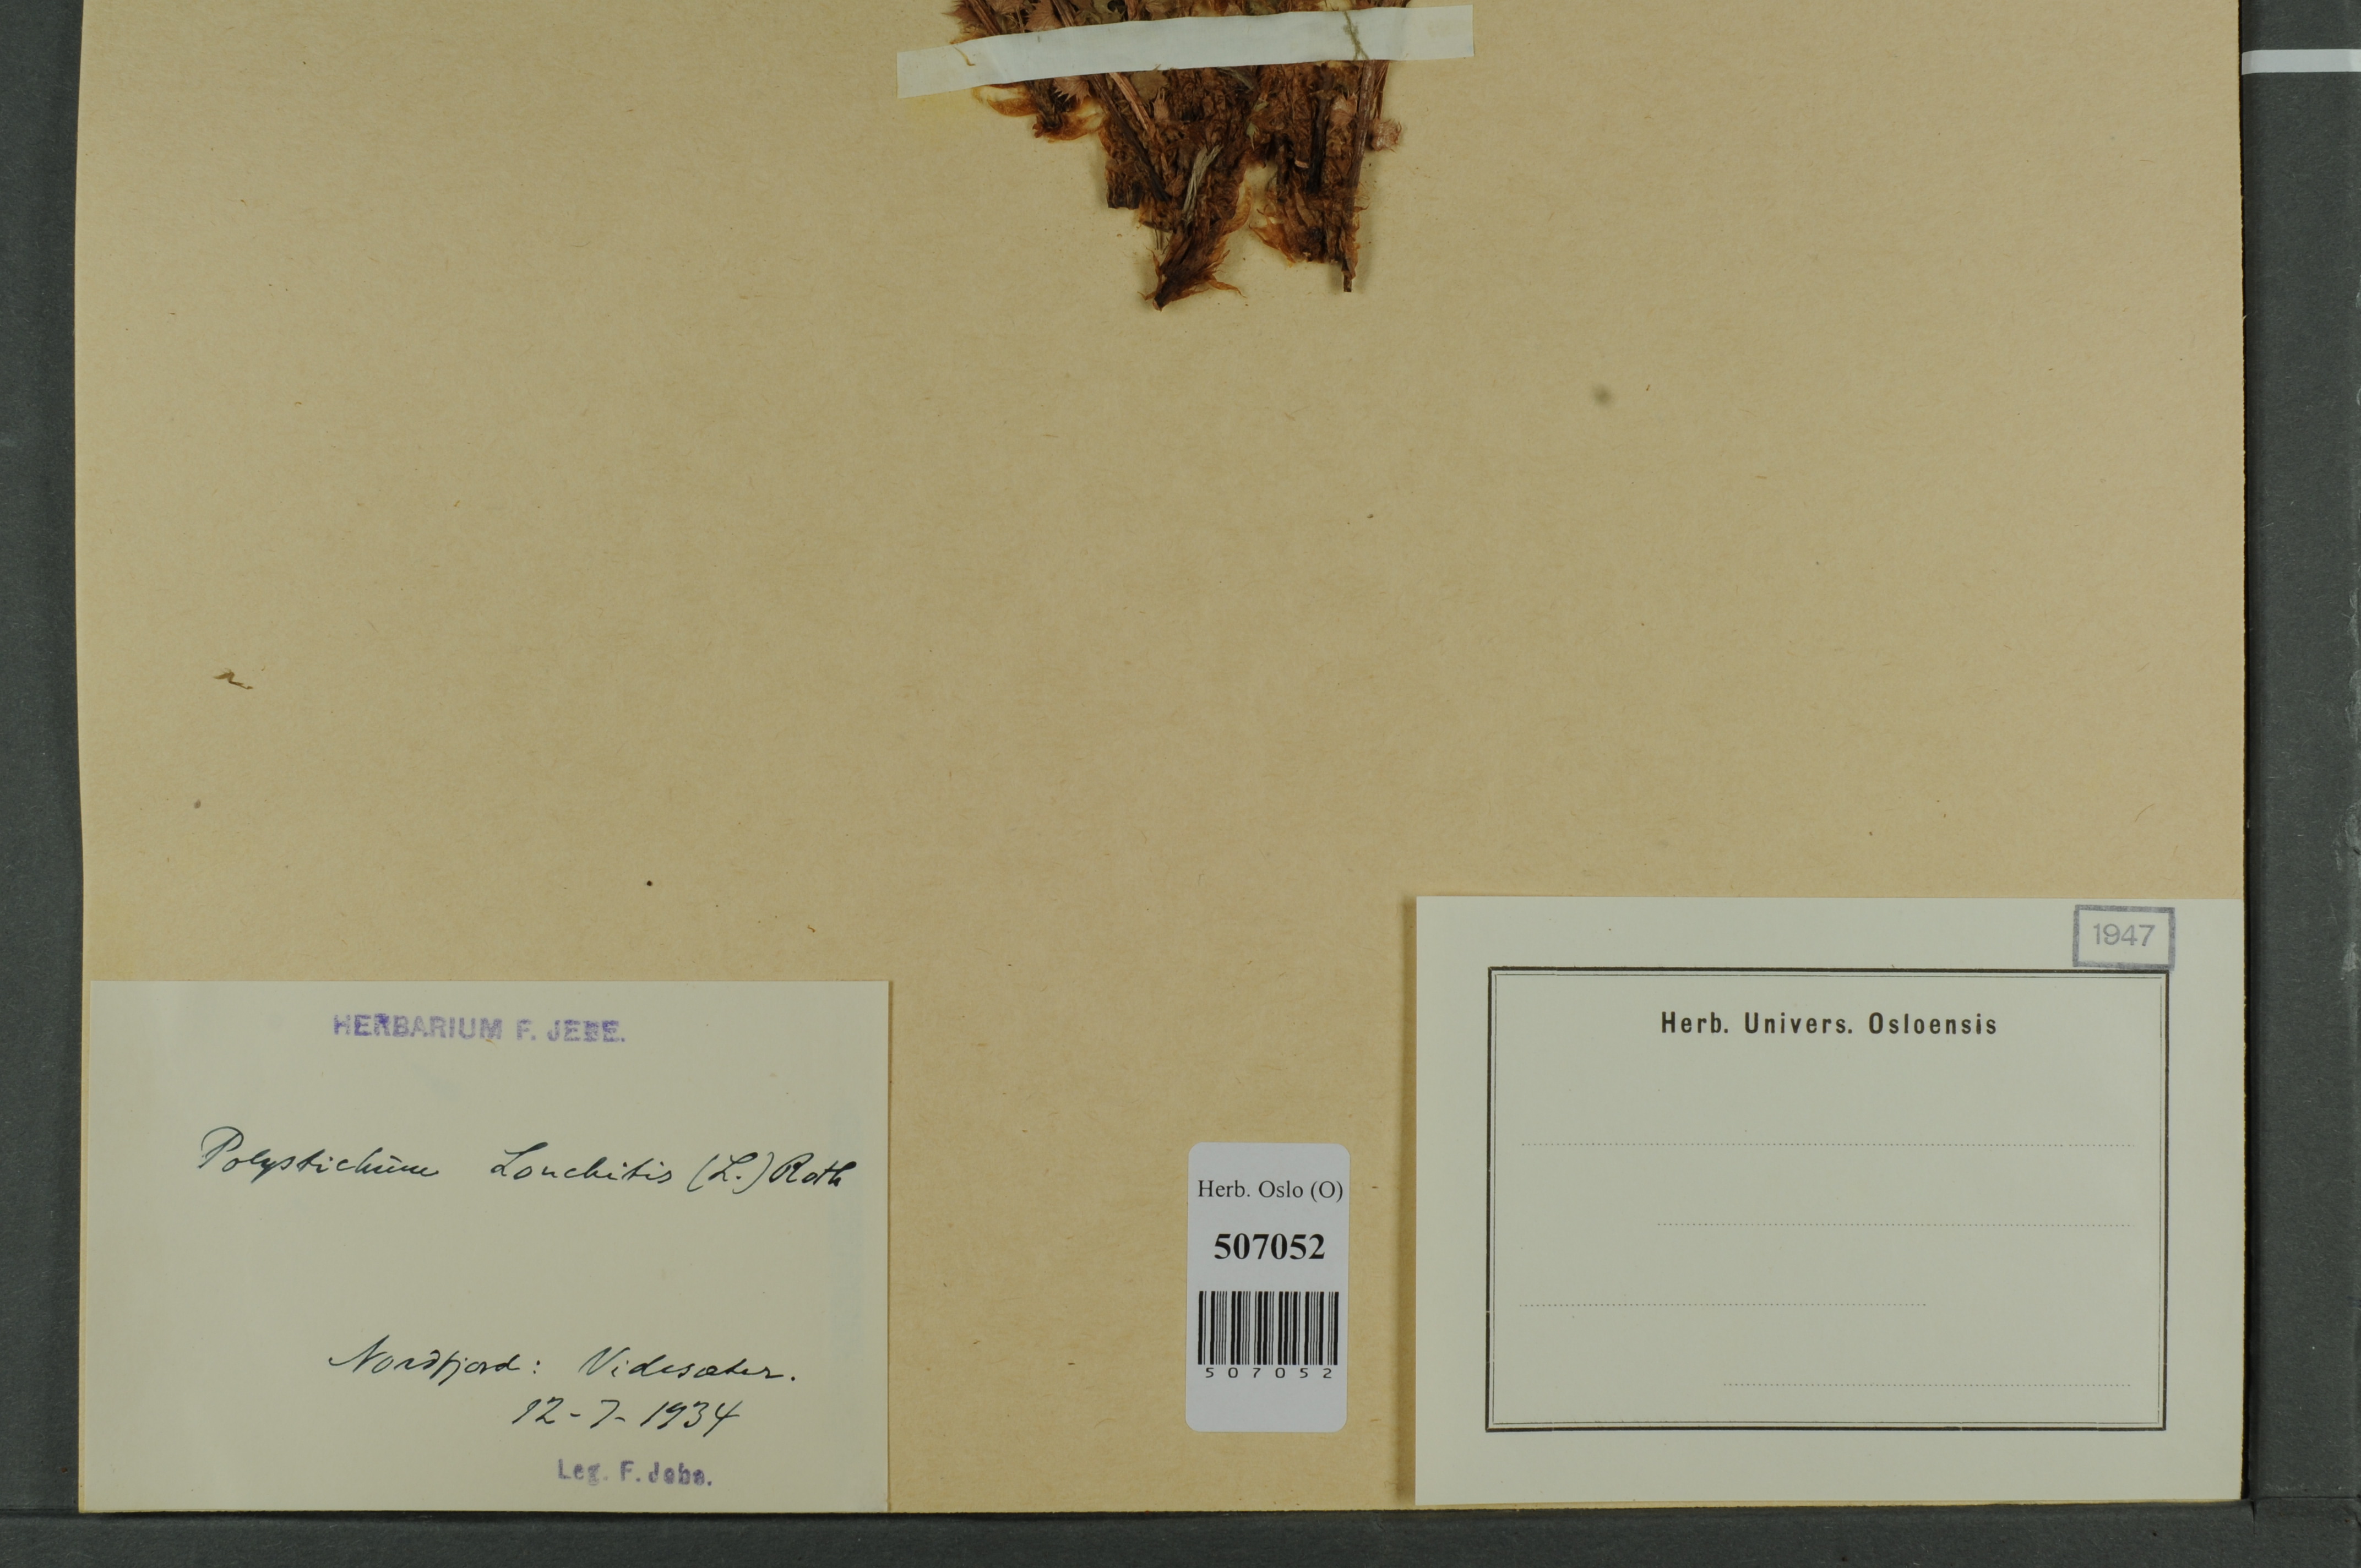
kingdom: Plantae
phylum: Tracheophyta
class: Polypodiopsida
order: Polypodiales
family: Dryopteridaceae
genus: Polystichum
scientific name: Polystichum lonchitis
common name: Holly fern
